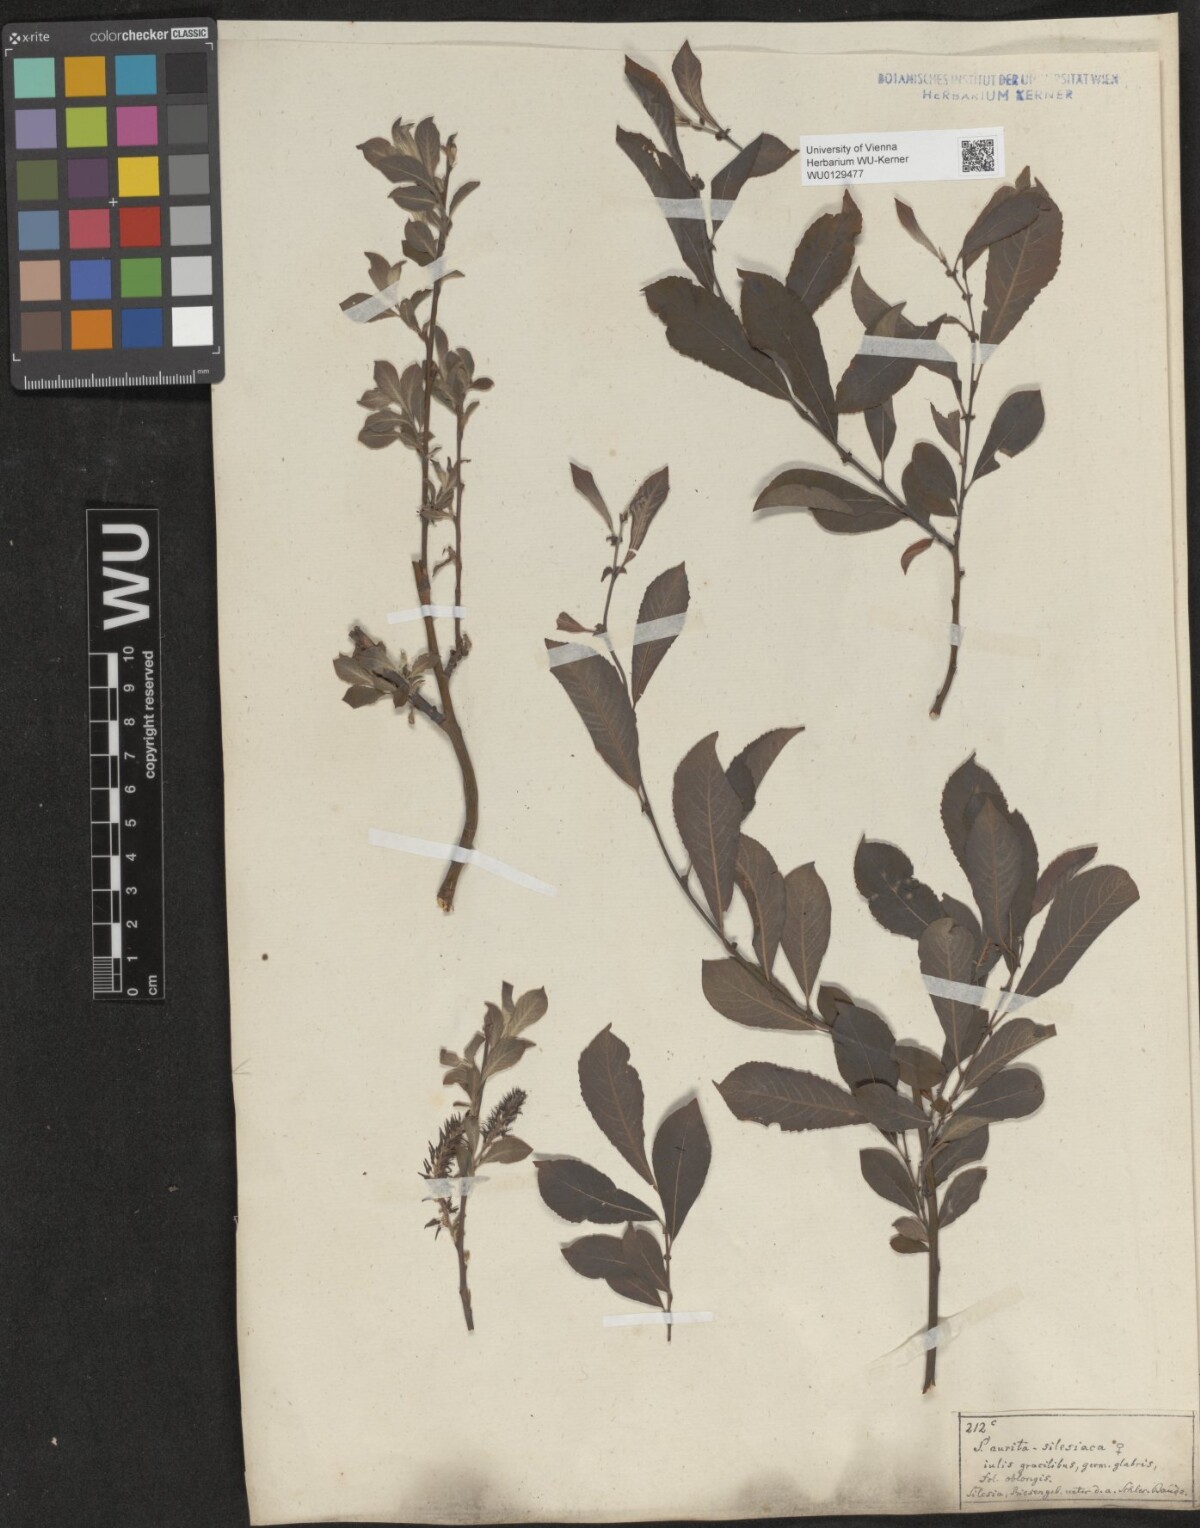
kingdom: Plantae
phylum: Tracheophyta
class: Magnoliopsida
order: Malpighiales
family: Salicaceae
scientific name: Salicaceae
